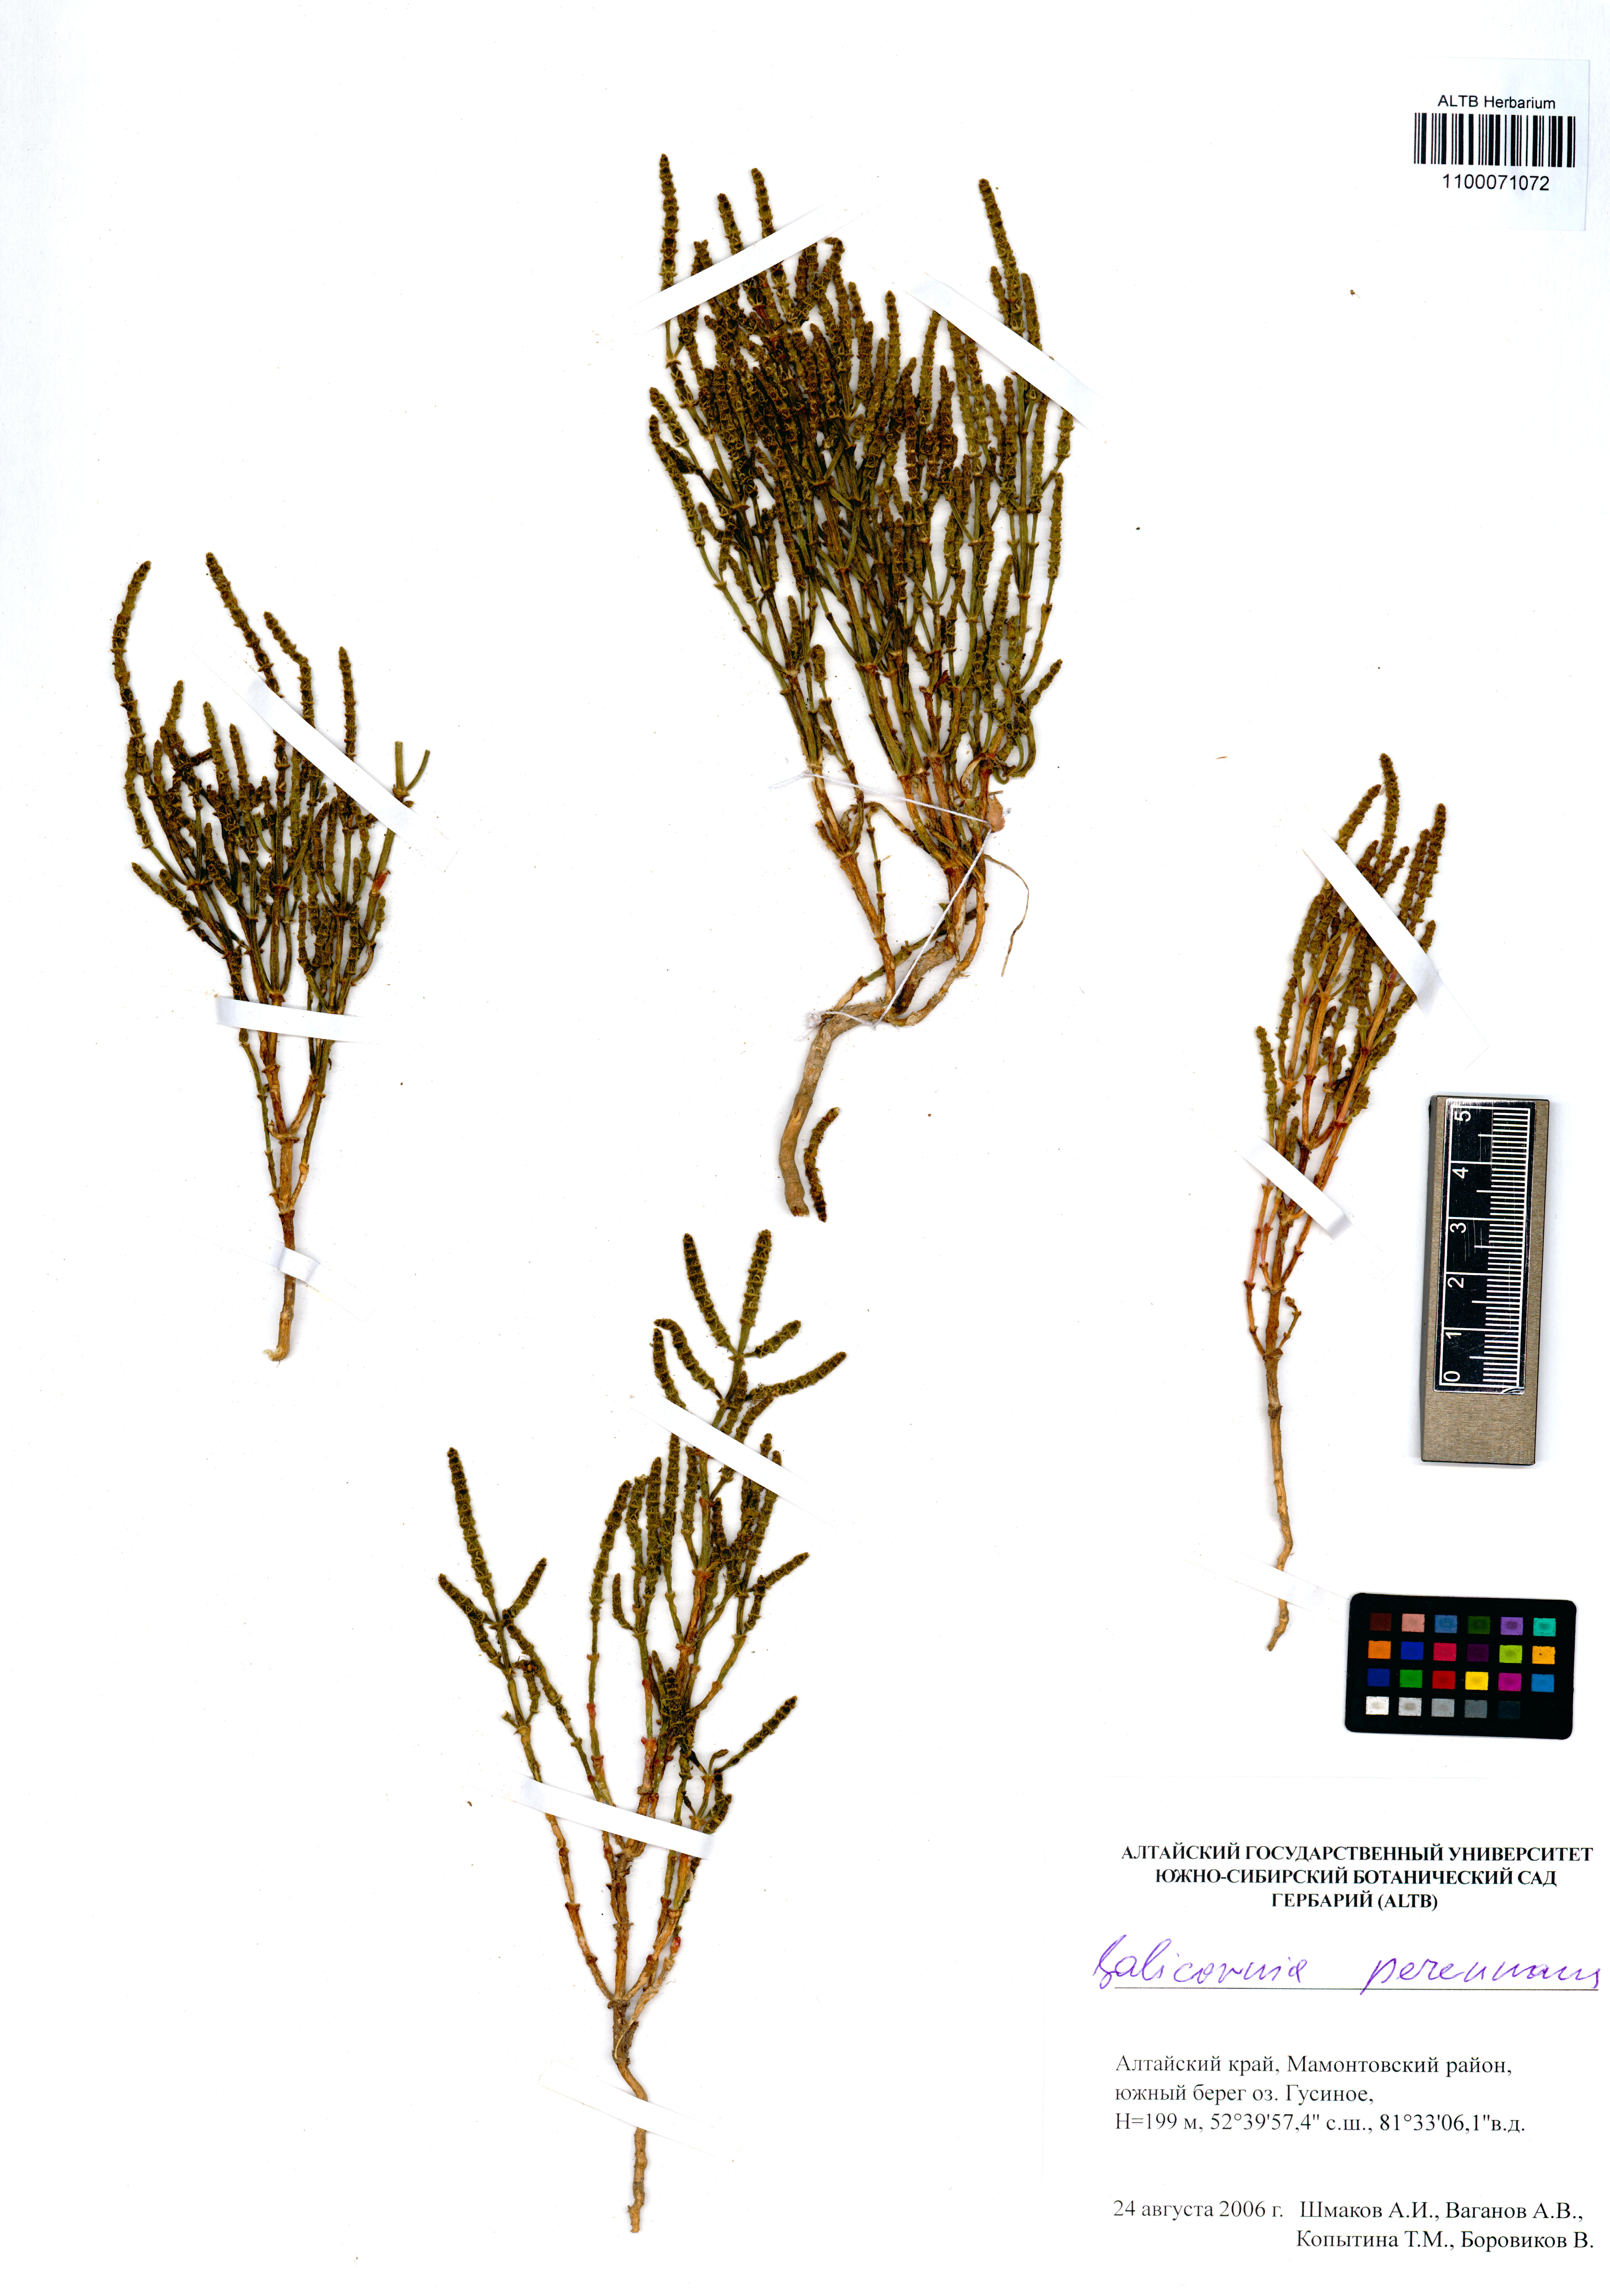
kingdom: Plantae
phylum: Tracheophyta
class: Magnoliopsida
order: Caryophyllales
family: Amaranthaceae
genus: Salicornia
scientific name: Salicornia perennans
